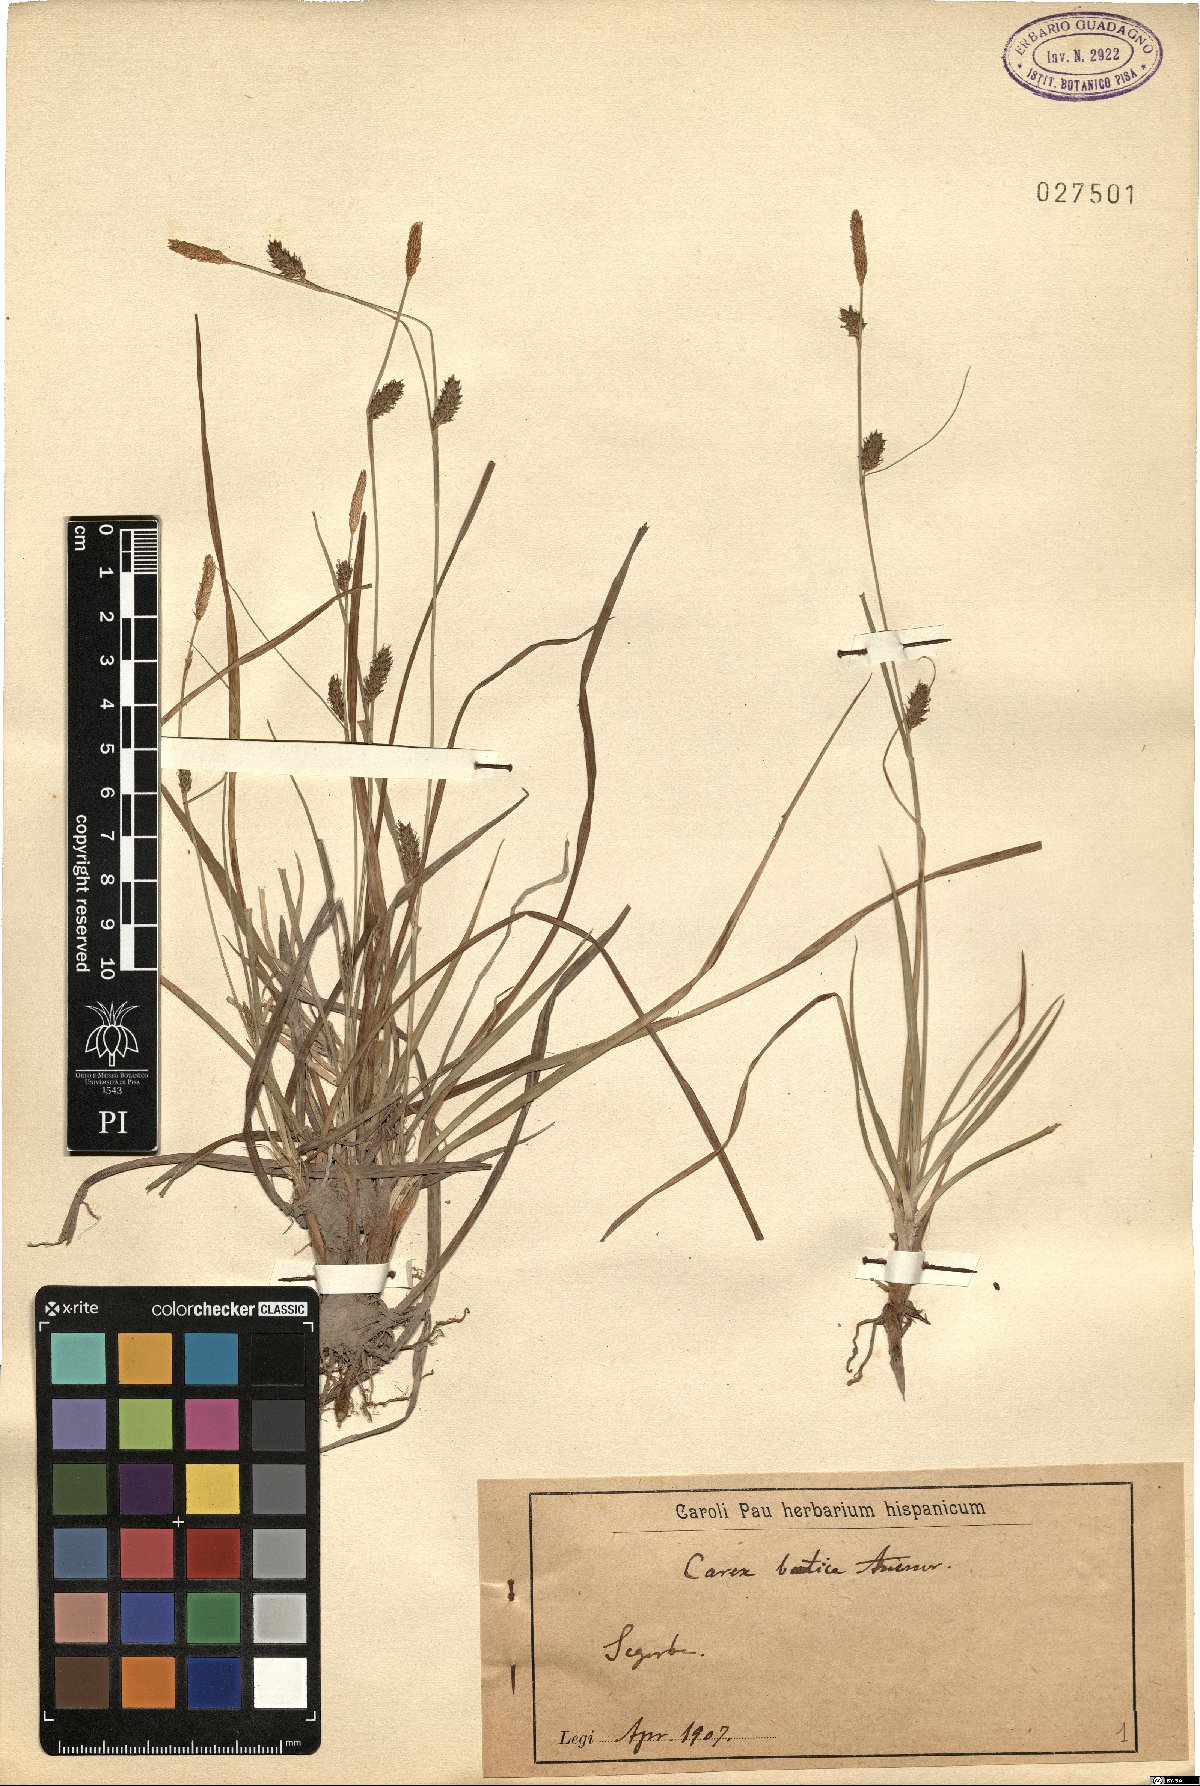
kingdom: Plantae
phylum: Tracheophyta
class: Liliopsida
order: Poales
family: Cyperaceae
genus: Carex
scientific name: Carex distans
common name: Distant sedge
